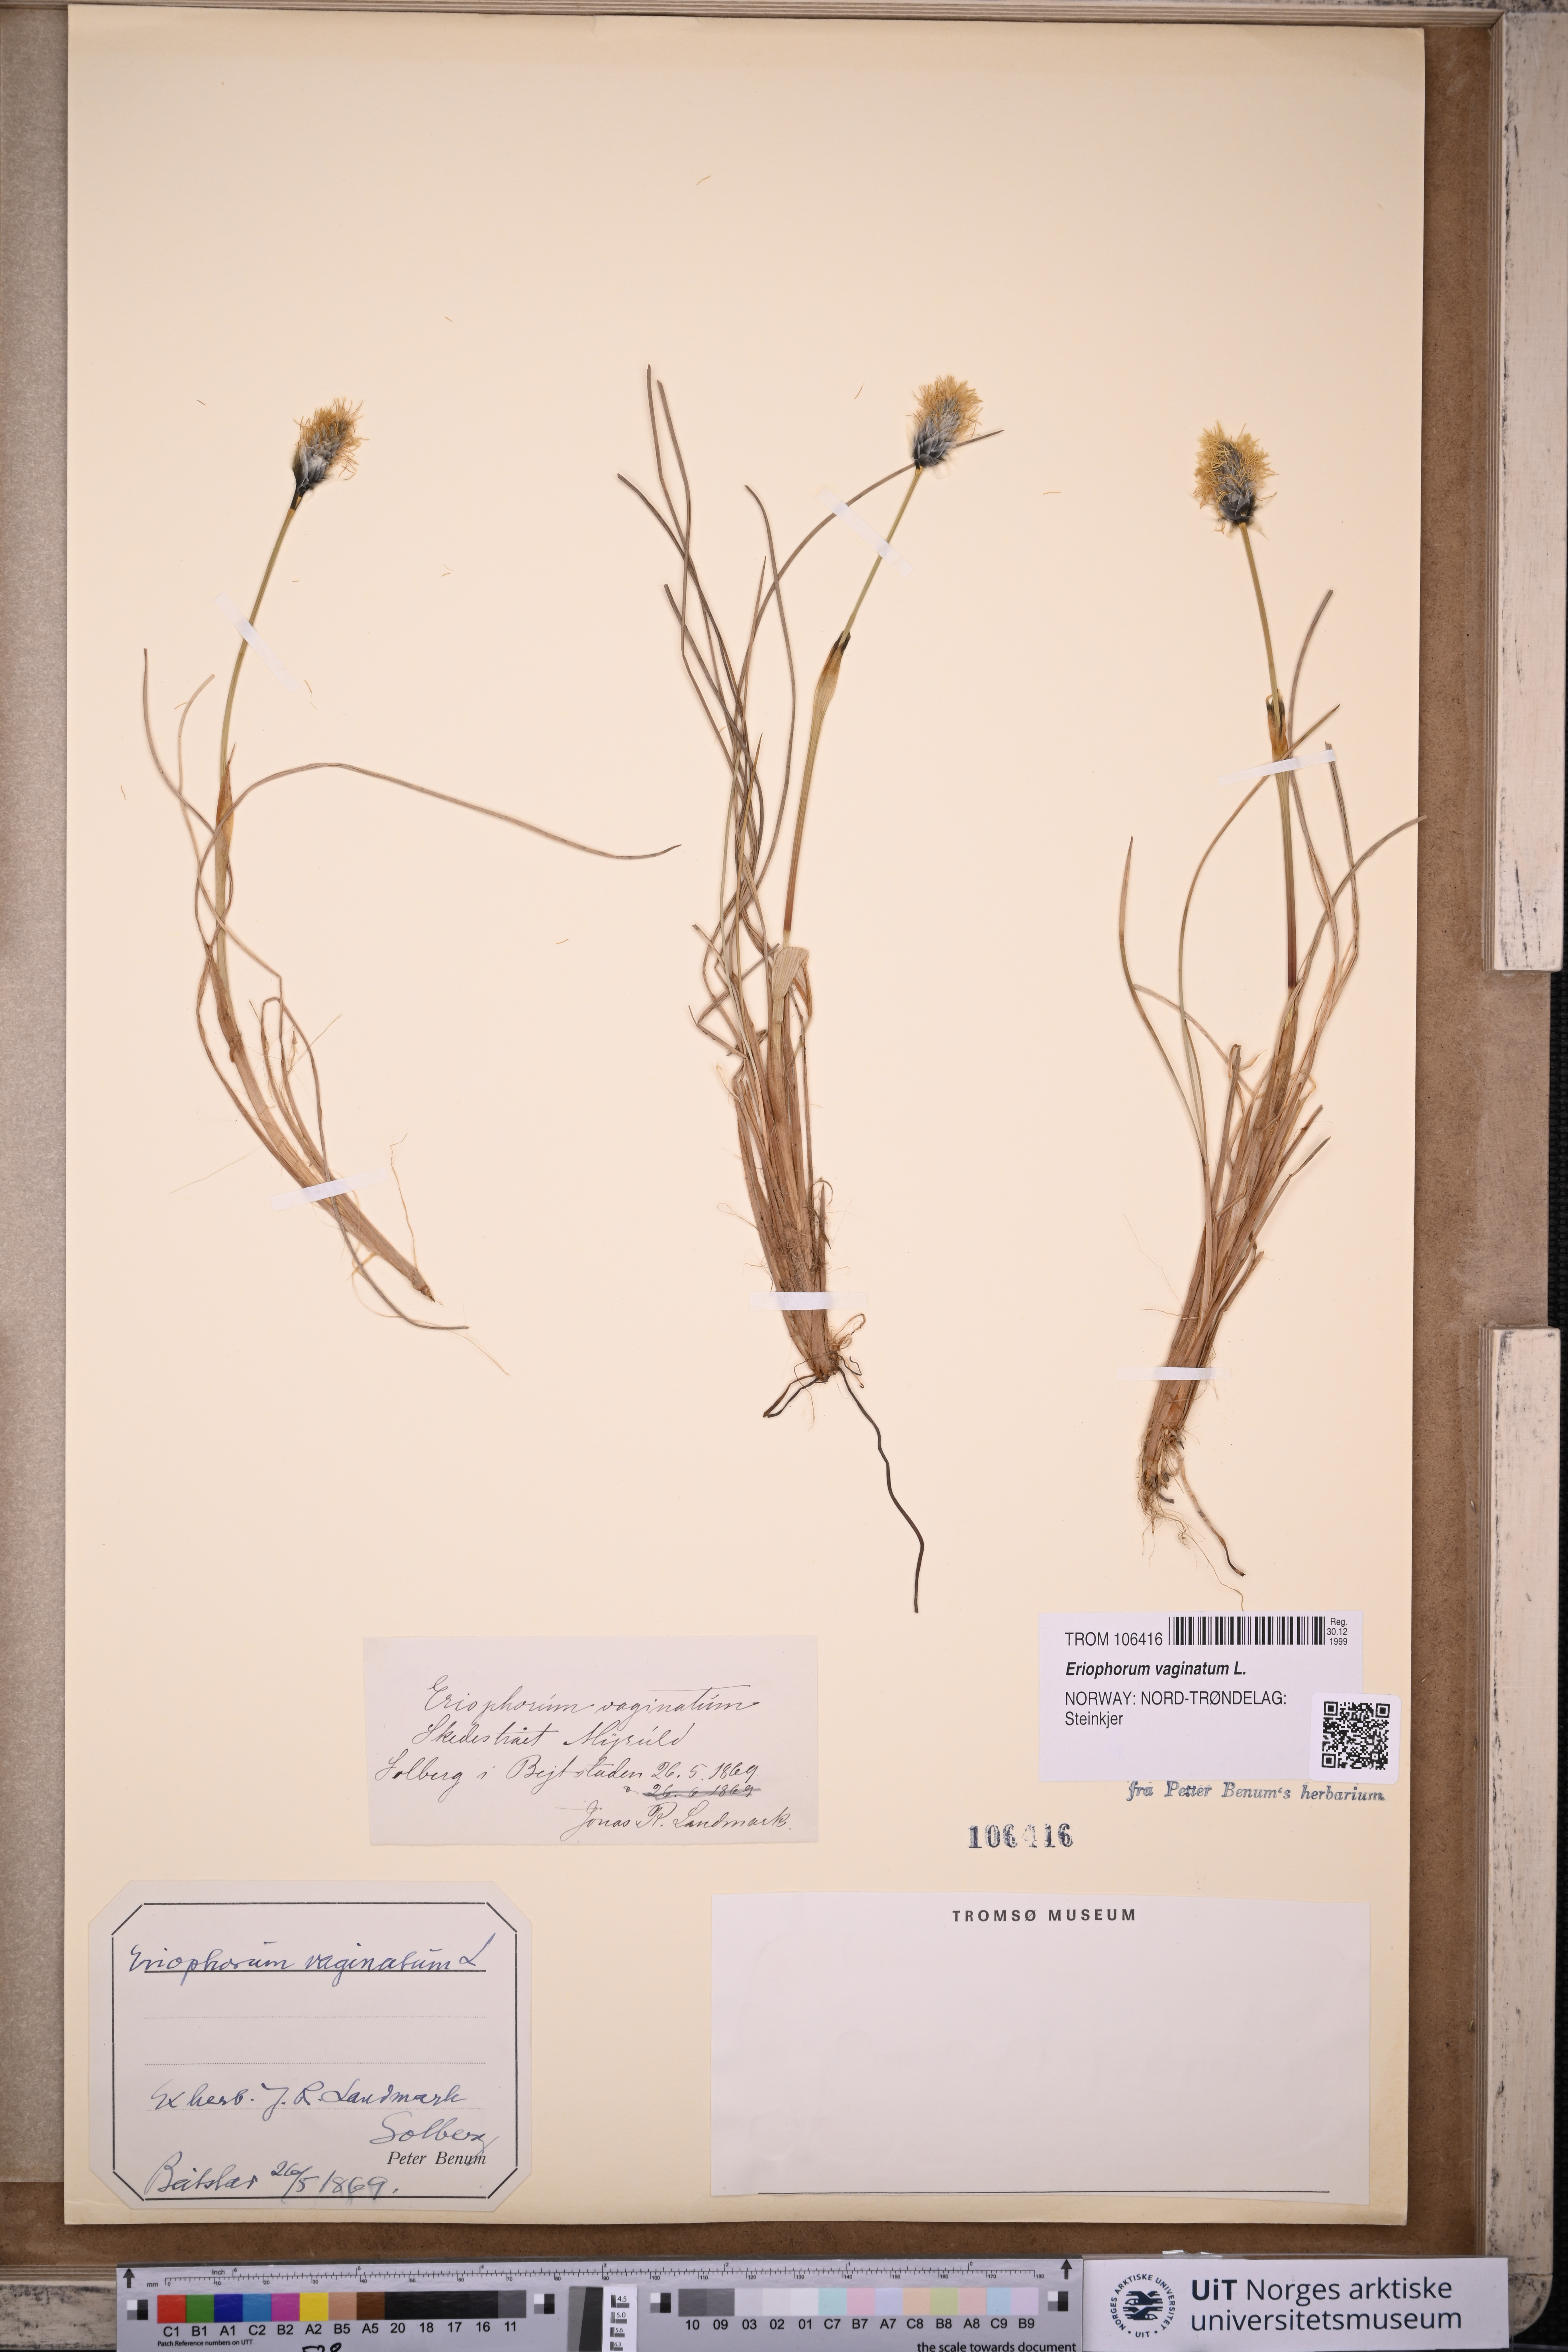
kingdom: Plantae
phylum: Tracheophyta
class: Liliopsida
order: Poales
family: Cyperaceae
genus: Eriophorum
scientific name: Eriophorum vaginatum
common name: Hare's-tail cottongrass
